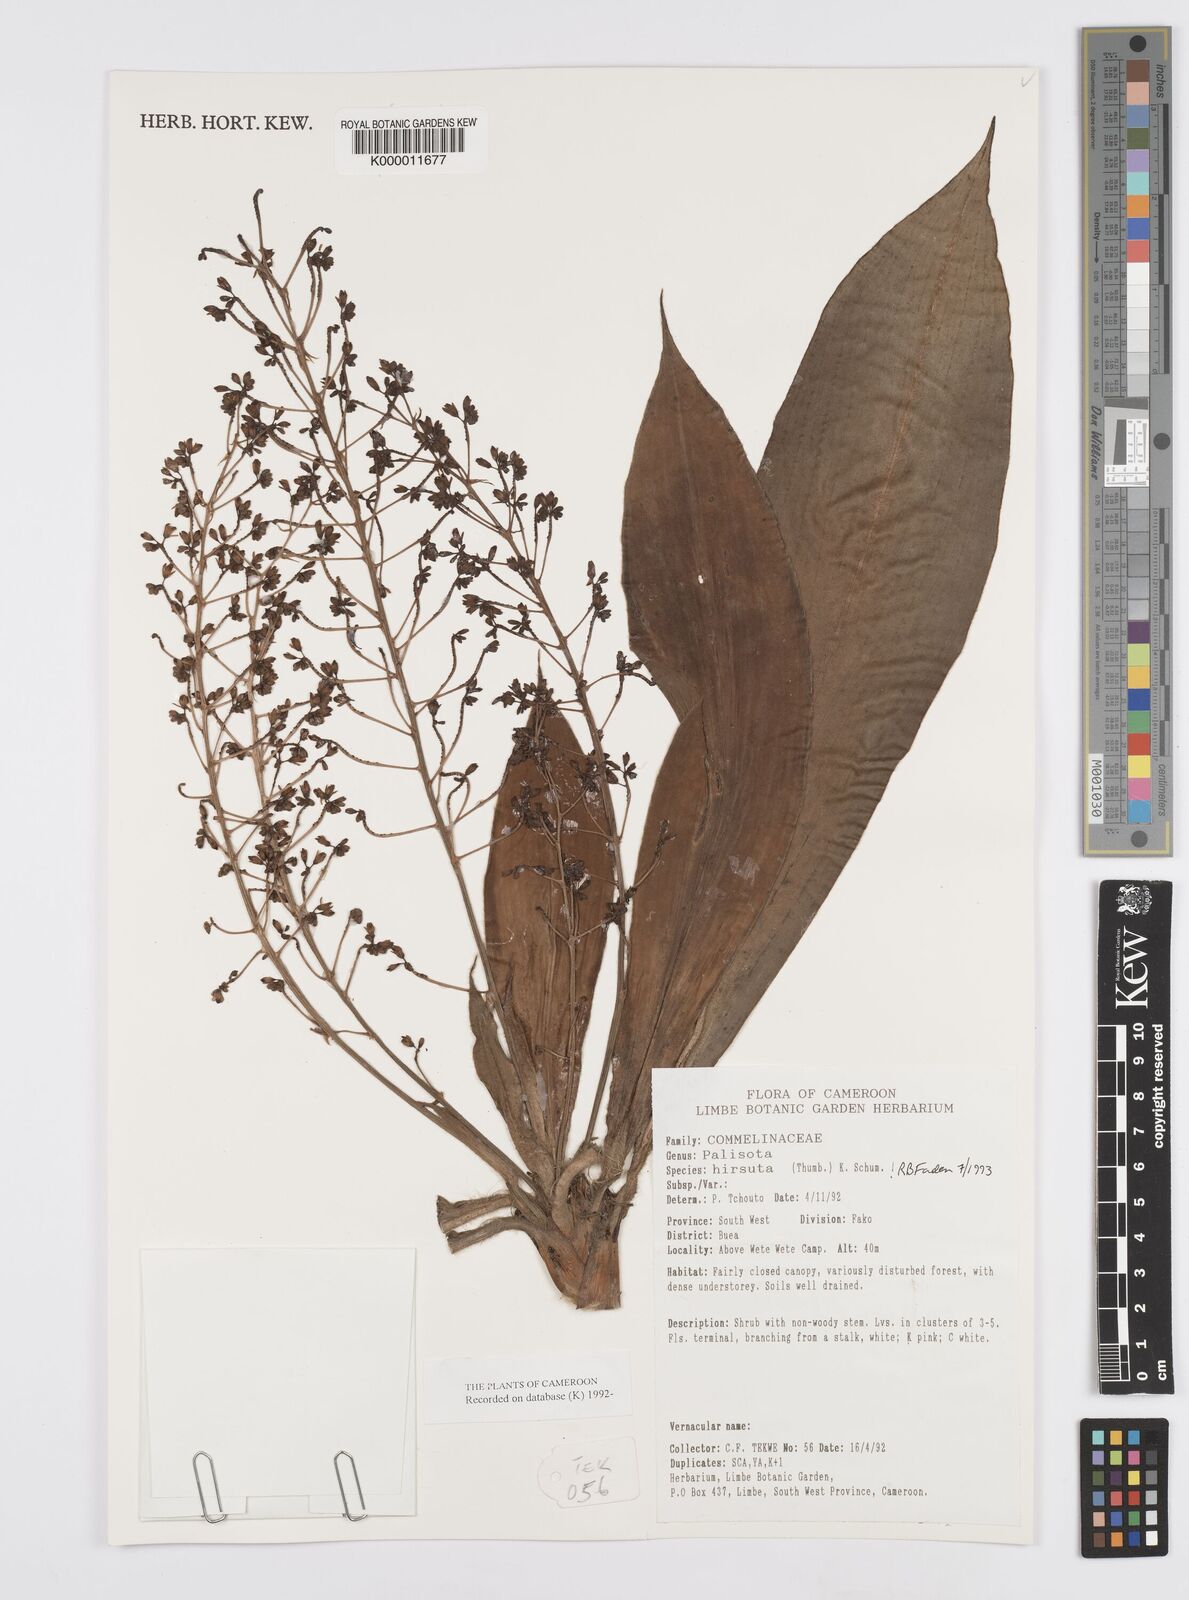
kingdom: Plantae
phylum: Tracheophyta
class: Liliopsida
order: Commelinales
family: Commelinaceae
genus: Palisota
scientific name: Palisota hirsuta
